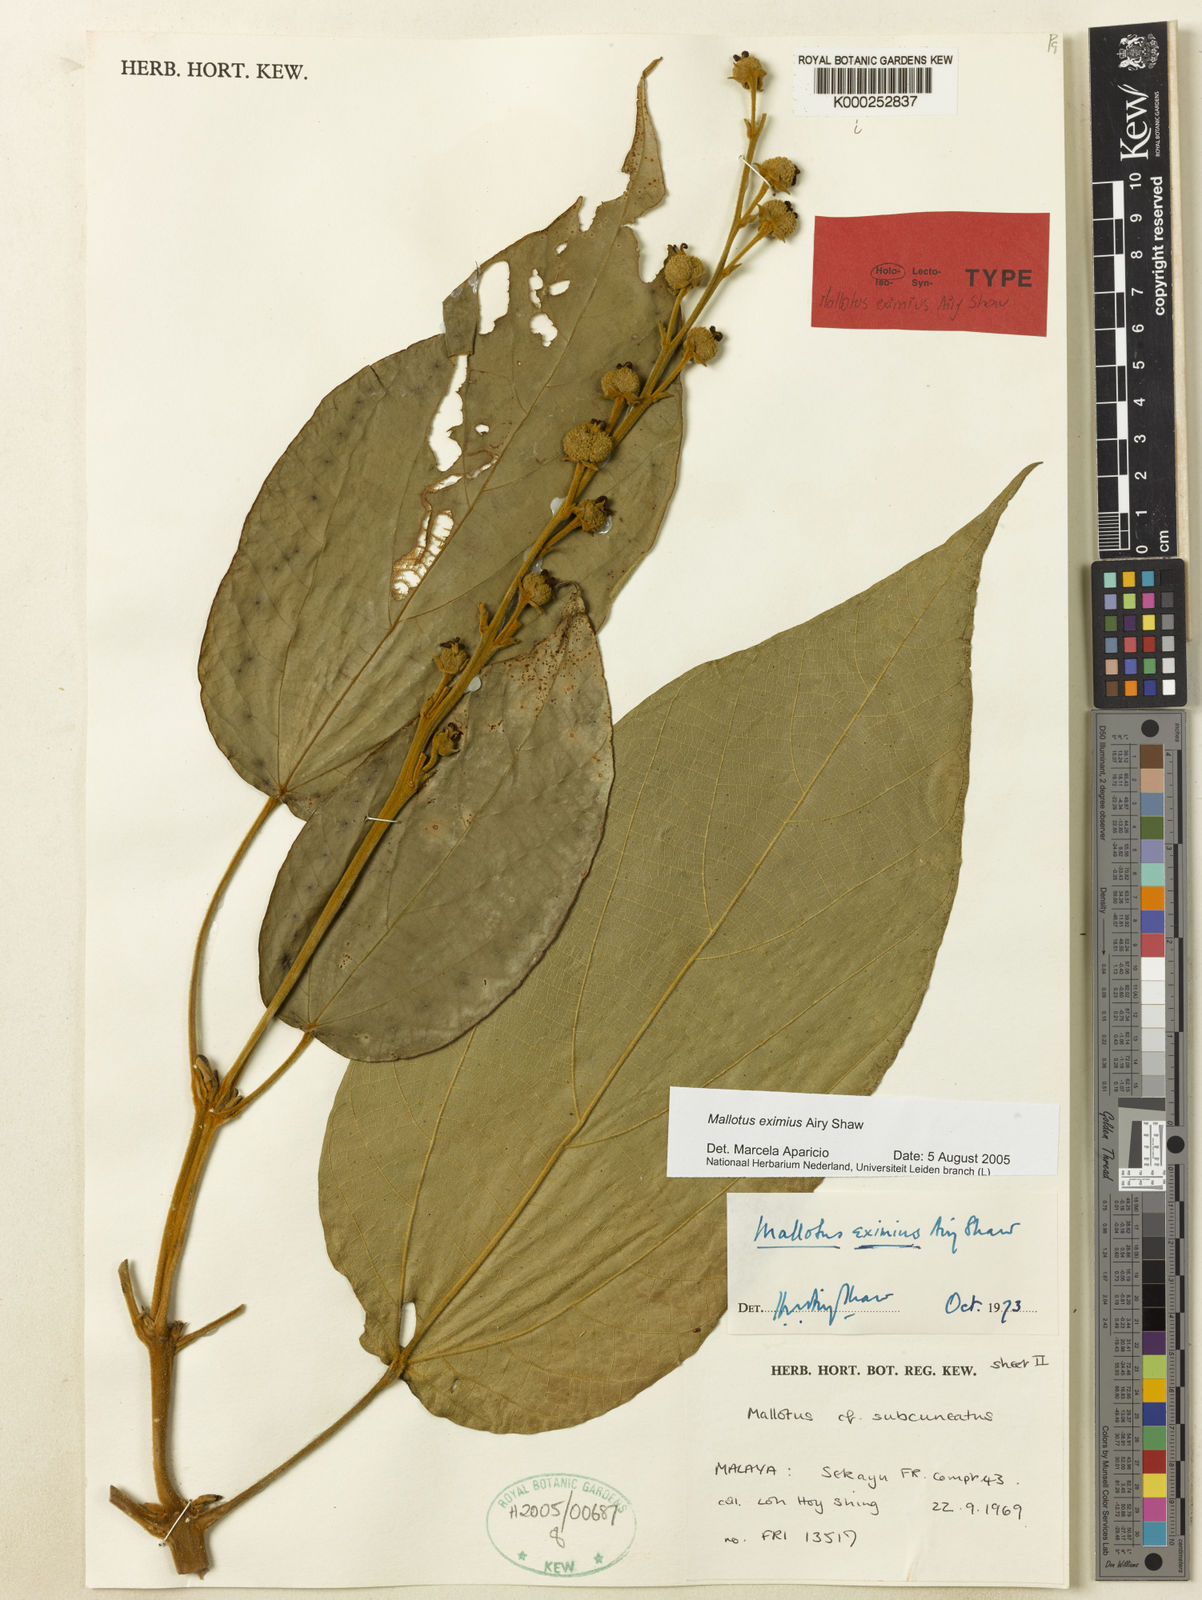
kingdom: Plantae
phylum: Tracheophyta
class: Magnoliopsida
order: Malpighiales
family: Euphorbiaceae
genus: Mallotus
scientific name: Mallotus eximius
